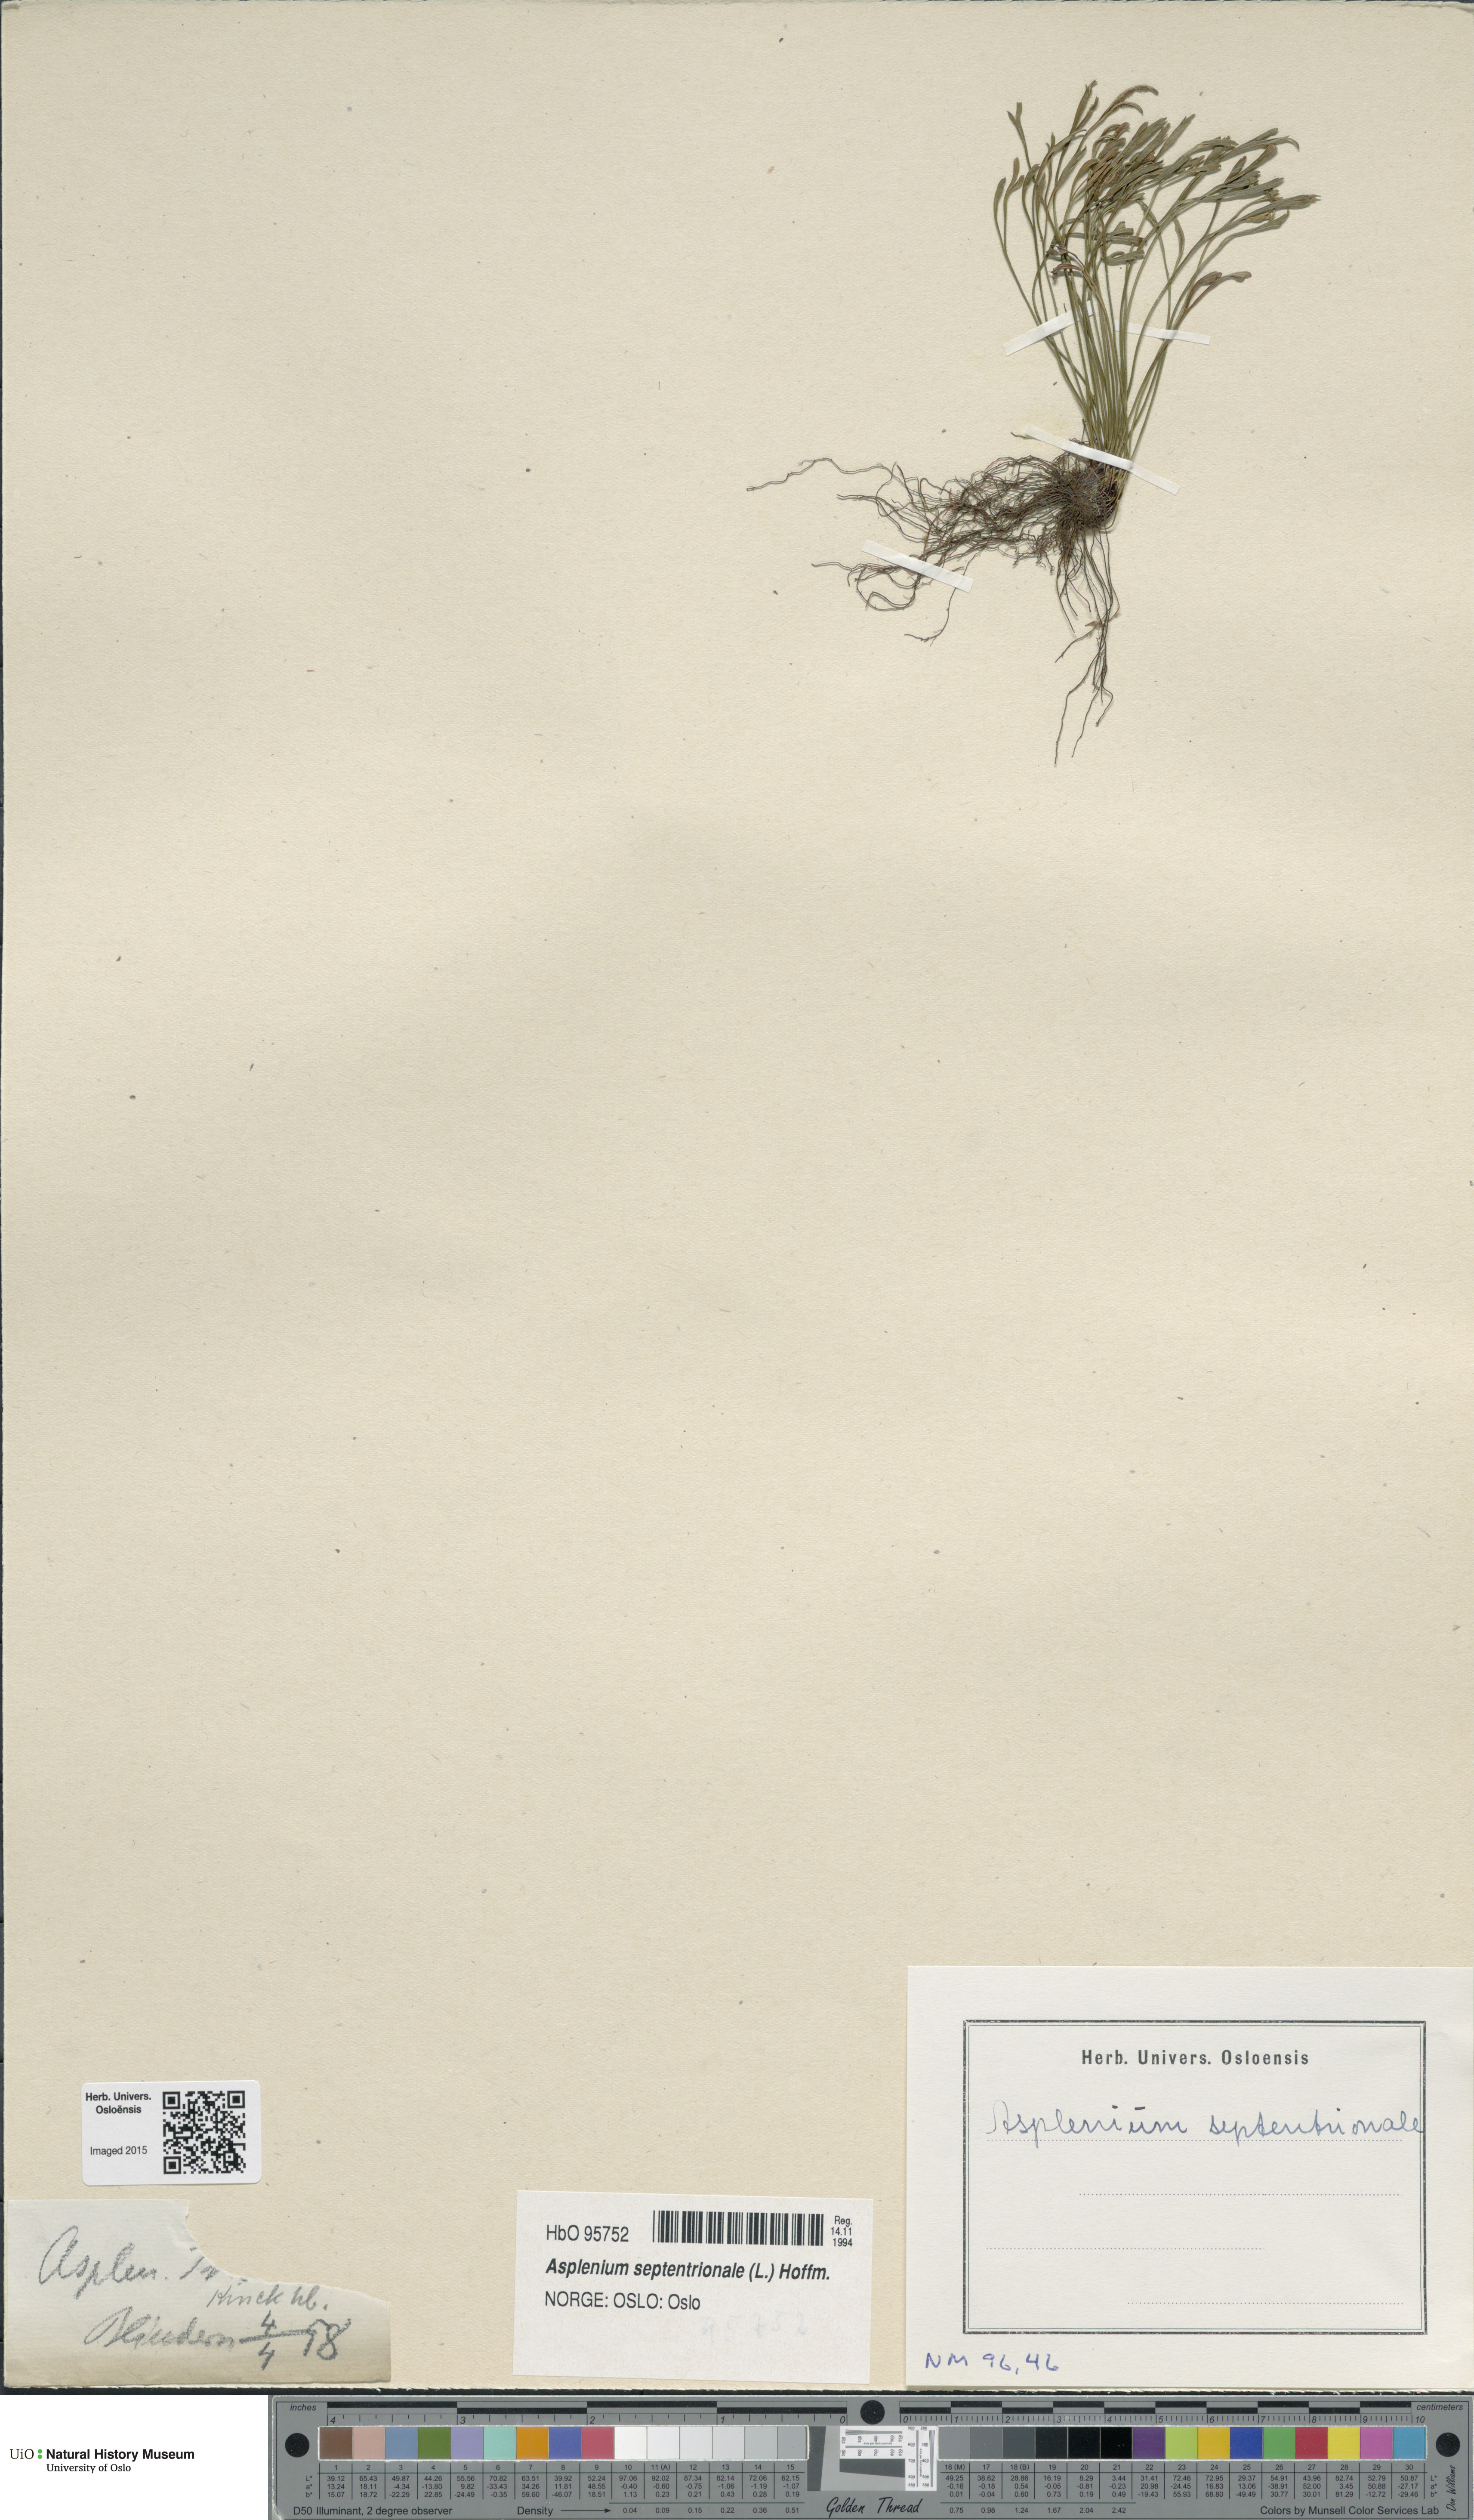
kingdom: Plantae
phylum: Tracheophyta
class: Polypodiopsida
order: Polypodiales
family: Aspleniaceae
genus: Asplenium
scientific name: Asplenium septentrionale
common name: Forked spleenwort
